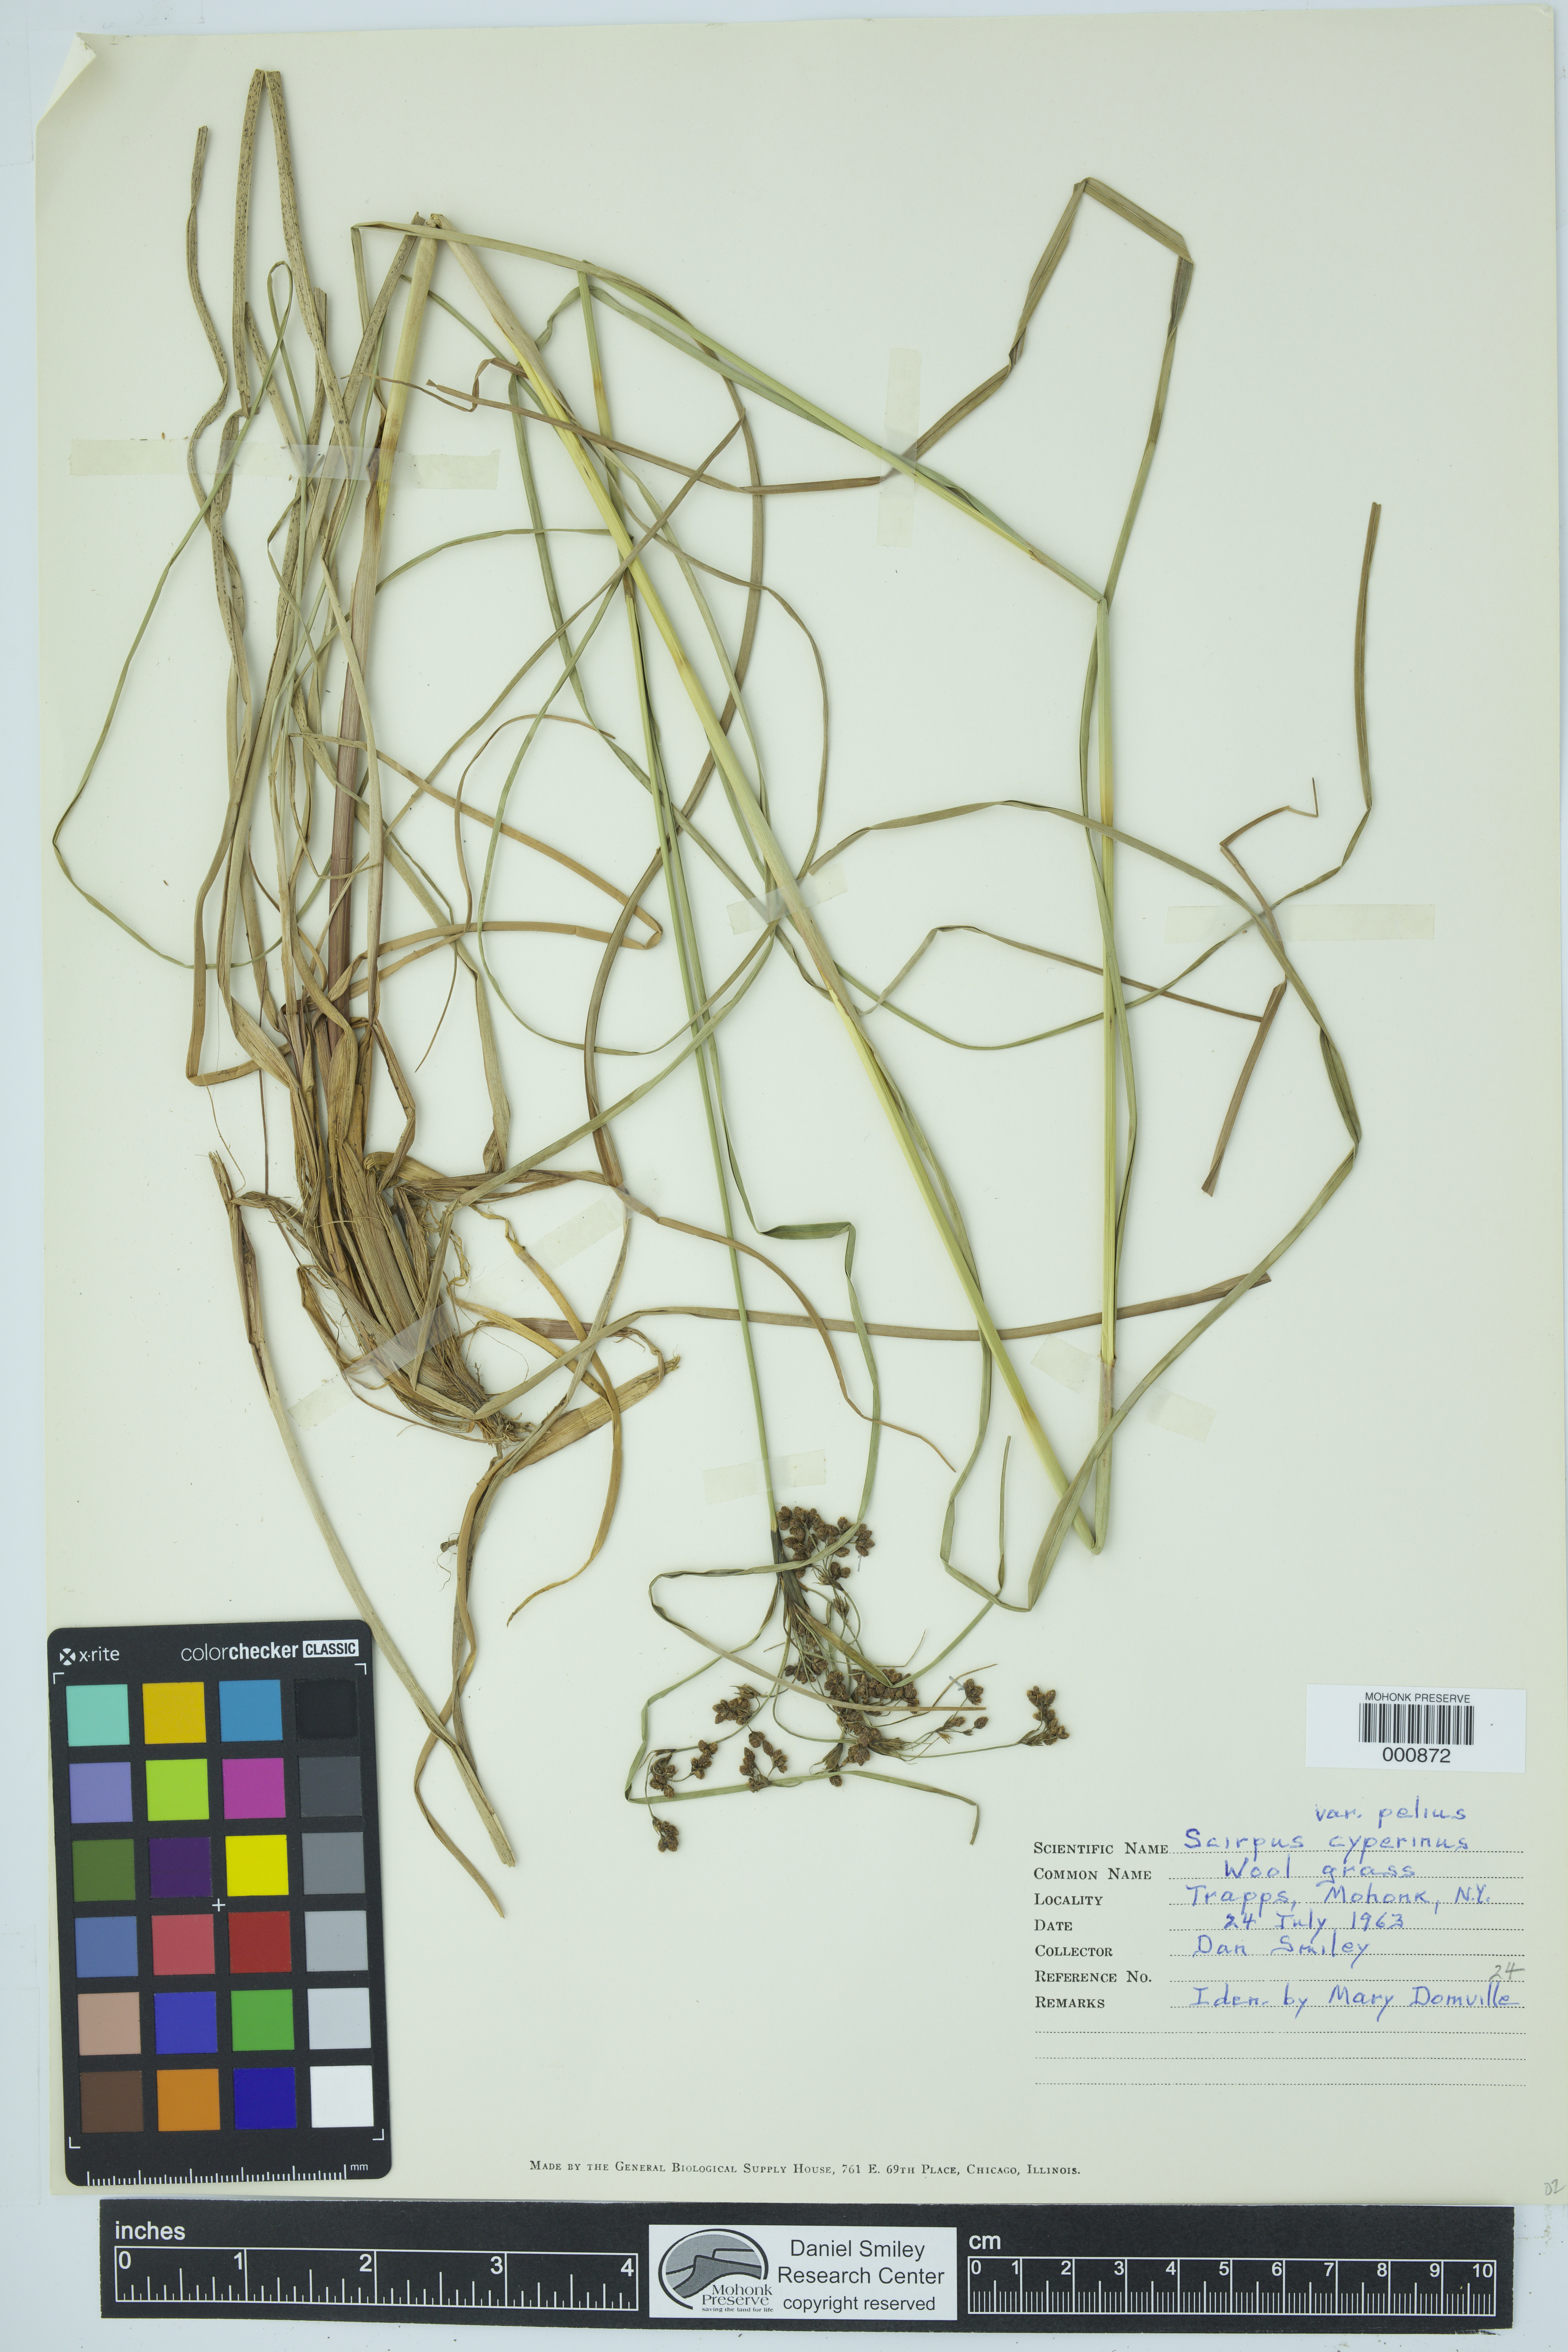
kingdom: Plantae
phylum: Tracheophyta
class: Liliopsida
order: Poales
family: Cyperaceae
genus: Scirpus
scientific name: Scirpus cyperinus
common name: Black-sheathed bulrush
